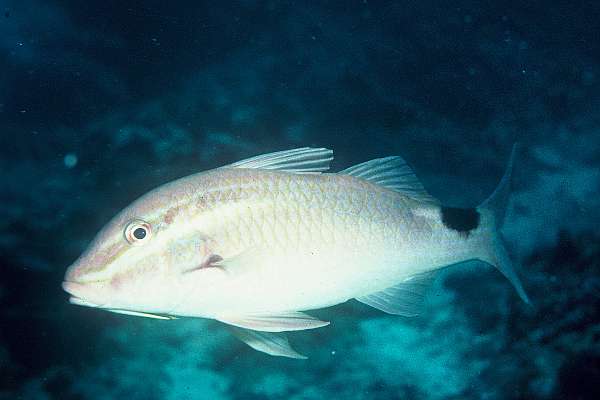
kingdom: Animalia
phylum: Chordata
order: Perciformes
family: Mullidae
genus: Parupeneus
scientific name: Parupeneus rubescens
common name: Rosy goatfish
